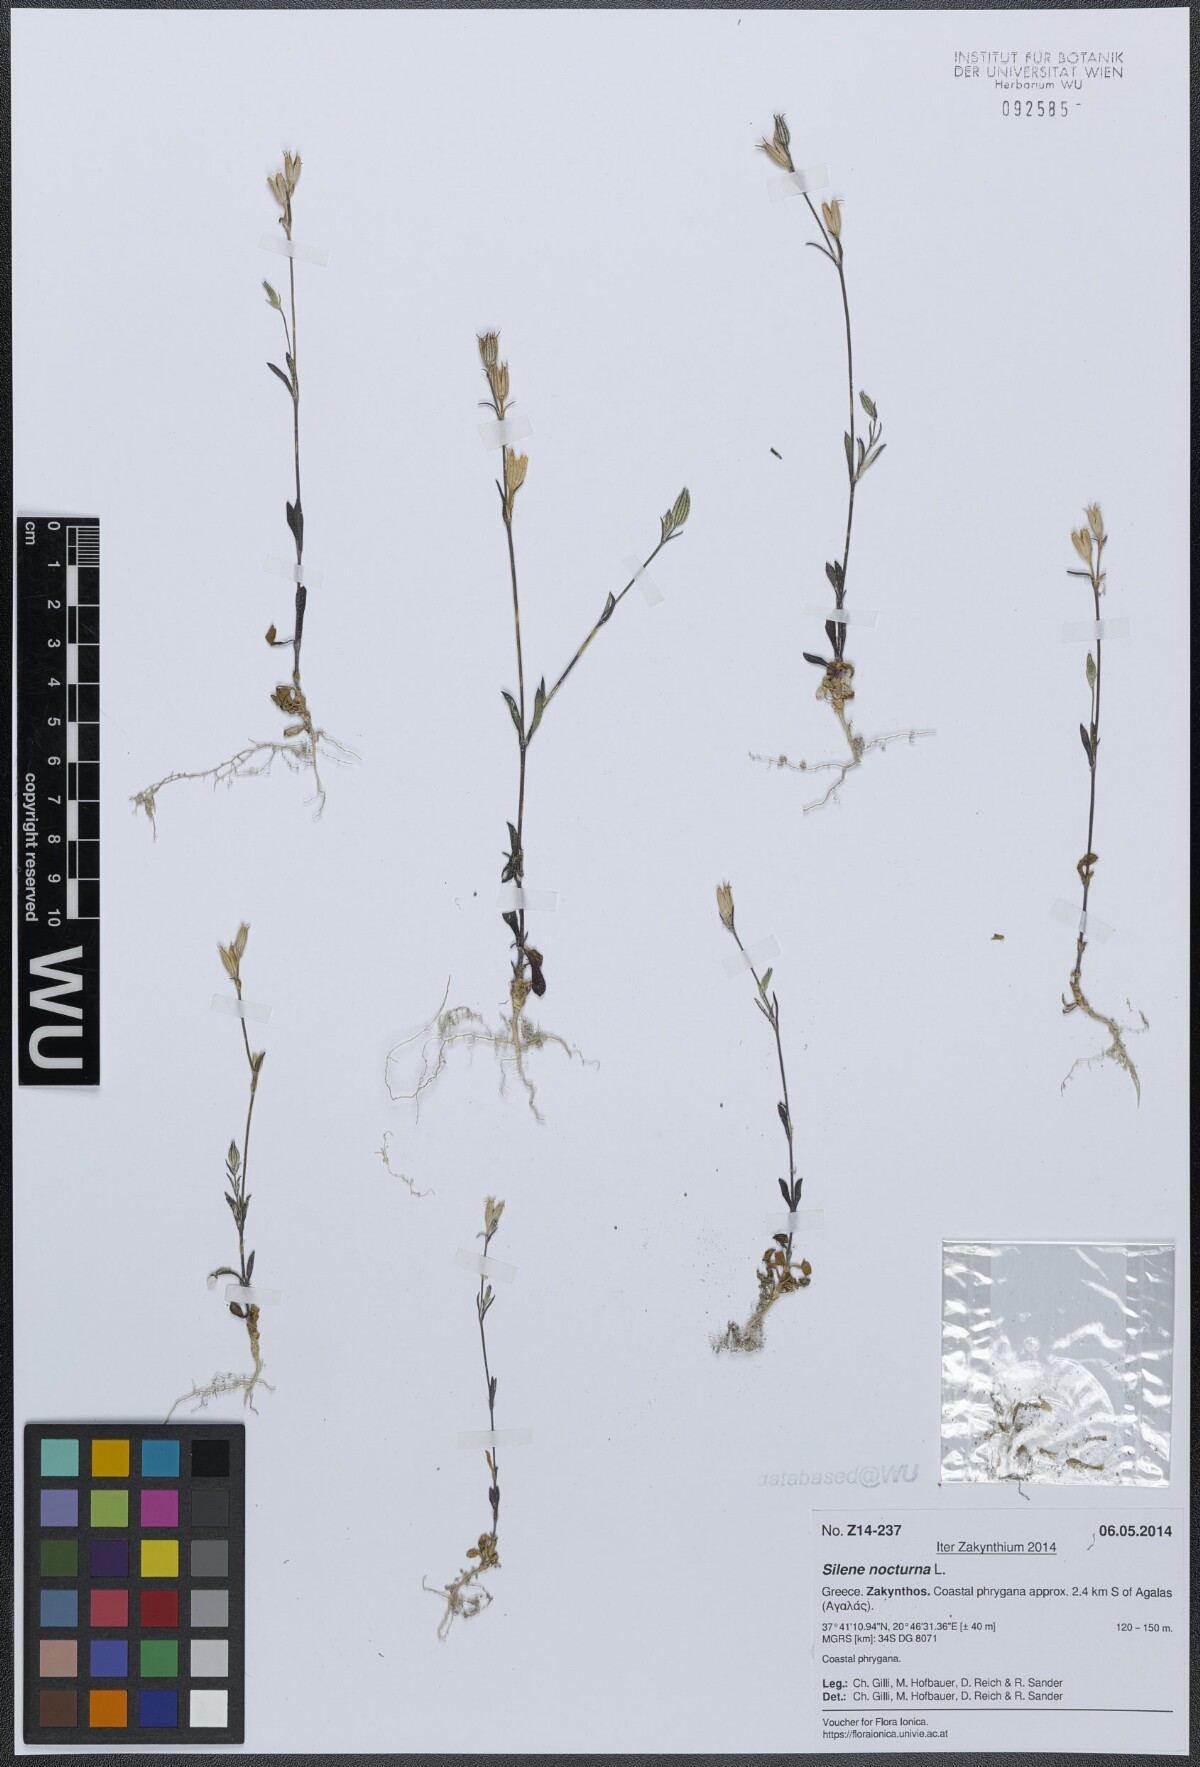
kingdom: Plantae
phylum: Tracheophyta
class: Magnoliopsida
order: Caryophyllales
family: Caryophyllaceae
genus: Silene
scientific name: Silene nocturna
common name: Mediterranean catchfly
